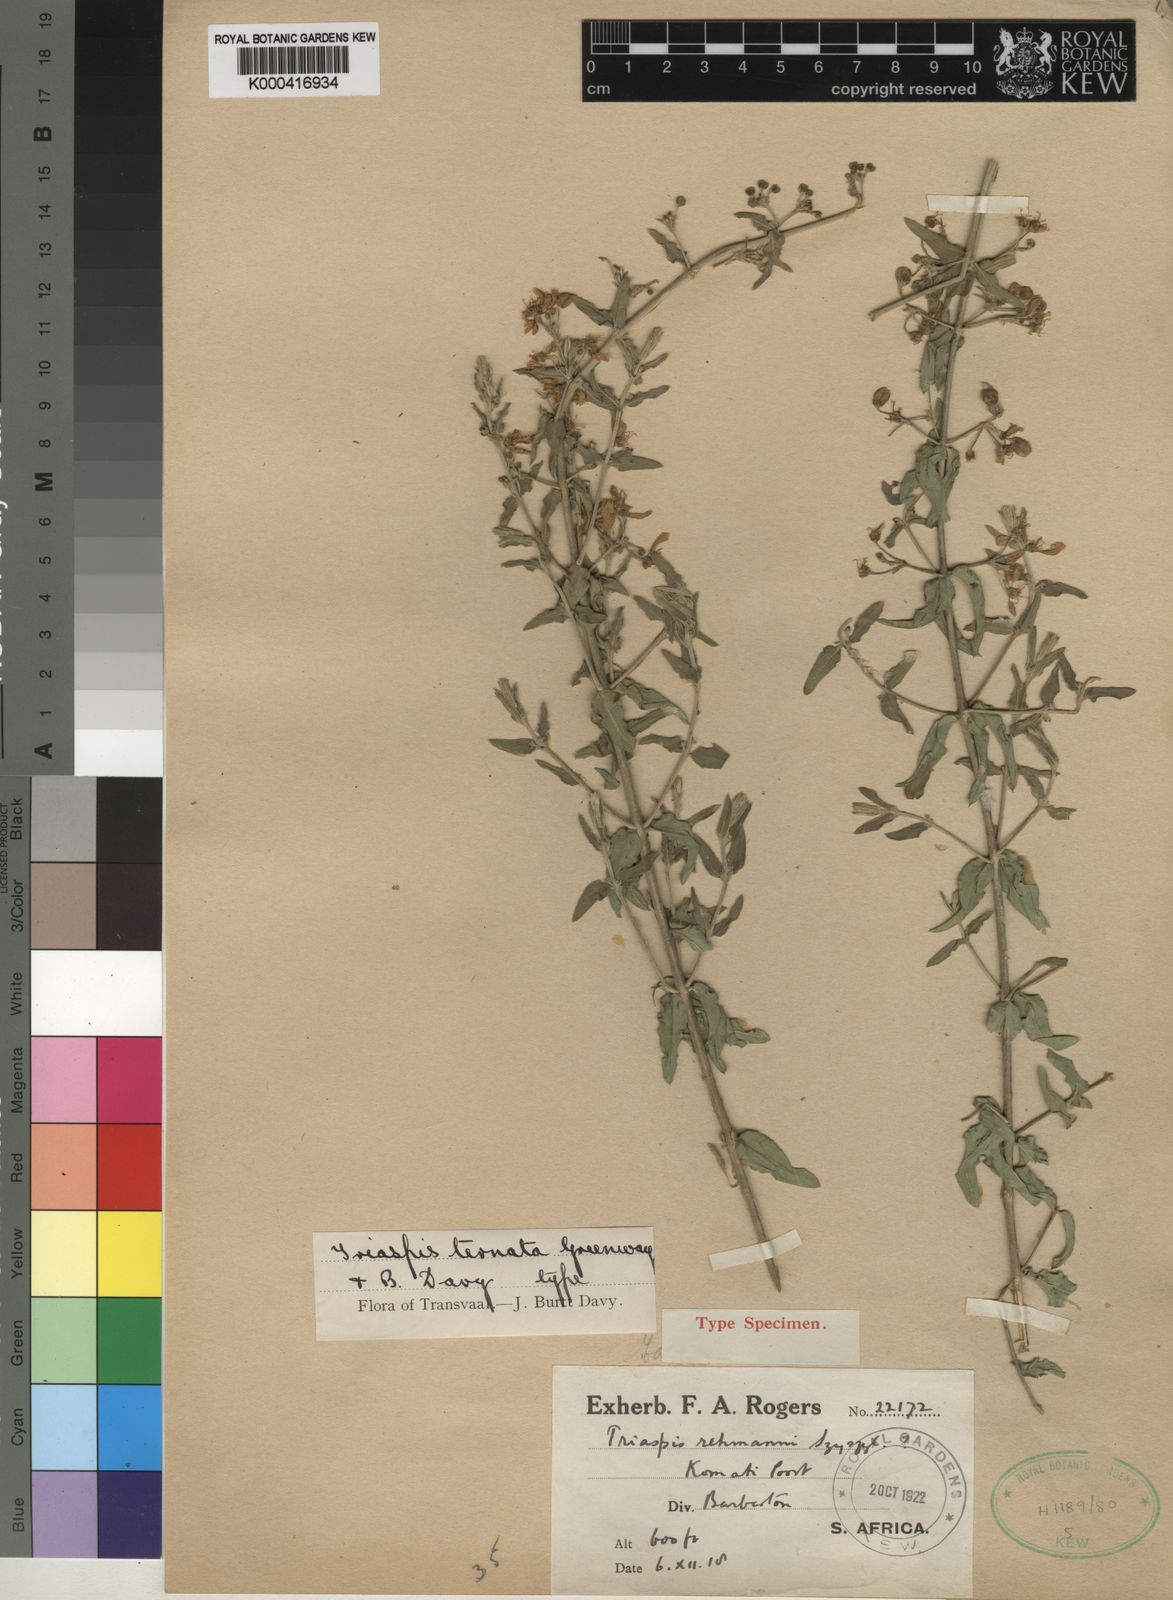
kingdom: Plantae
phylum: Tracheophyta
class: Magnoliopsida
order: Malpighiales
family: Malpighiaceae
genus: Triaspis
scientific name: Triaspis hypericoides
